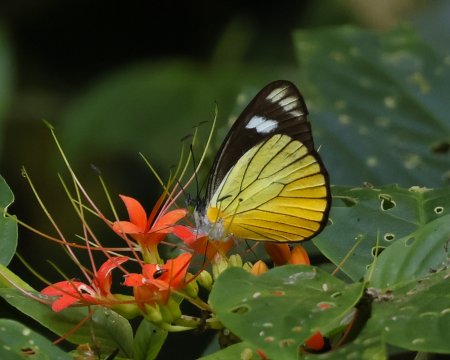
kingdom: Animalia
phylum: Arthropoda
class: Insecta
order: Lepidoptera
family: Pieridae
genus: Leptophobia
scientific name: Leptophobia caesia
